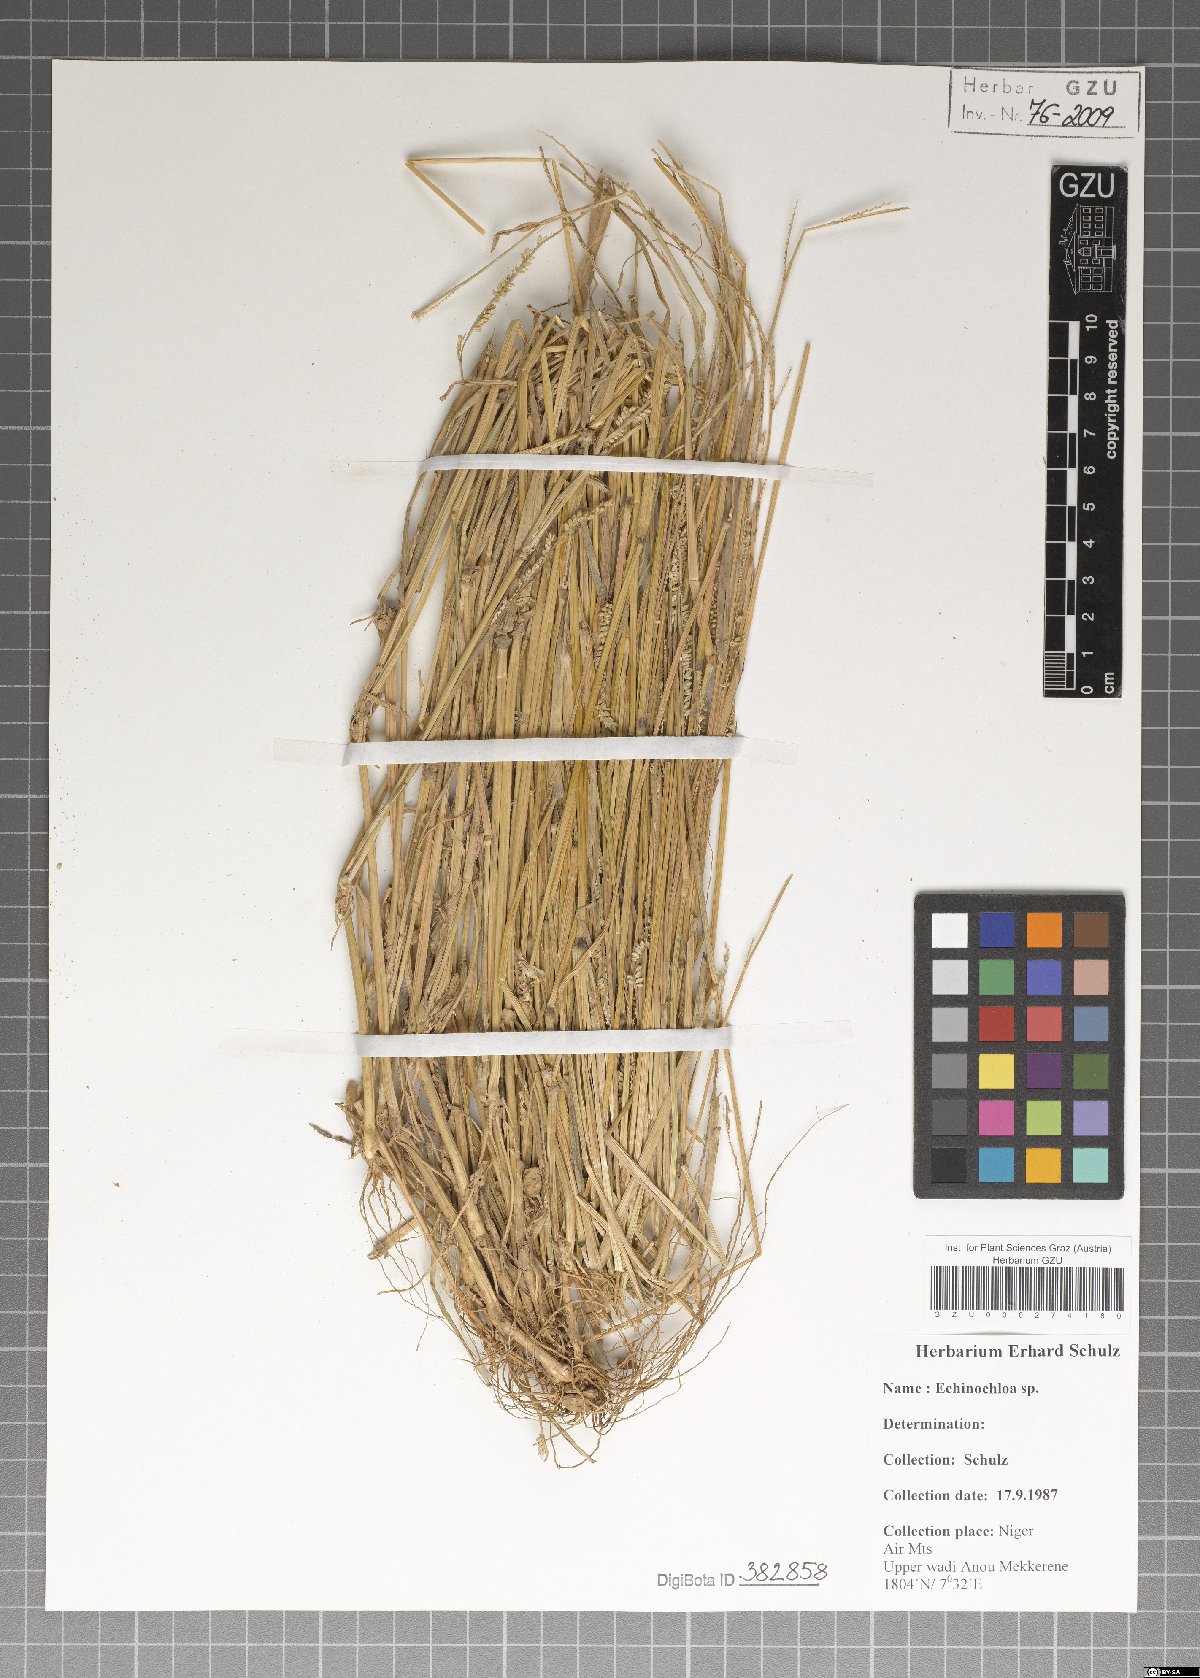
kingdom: Plantae
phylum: Tracheophyta
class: Liliopsida
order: Poales
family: Poaceae
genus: Echinochloa
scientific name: Echinochloa
